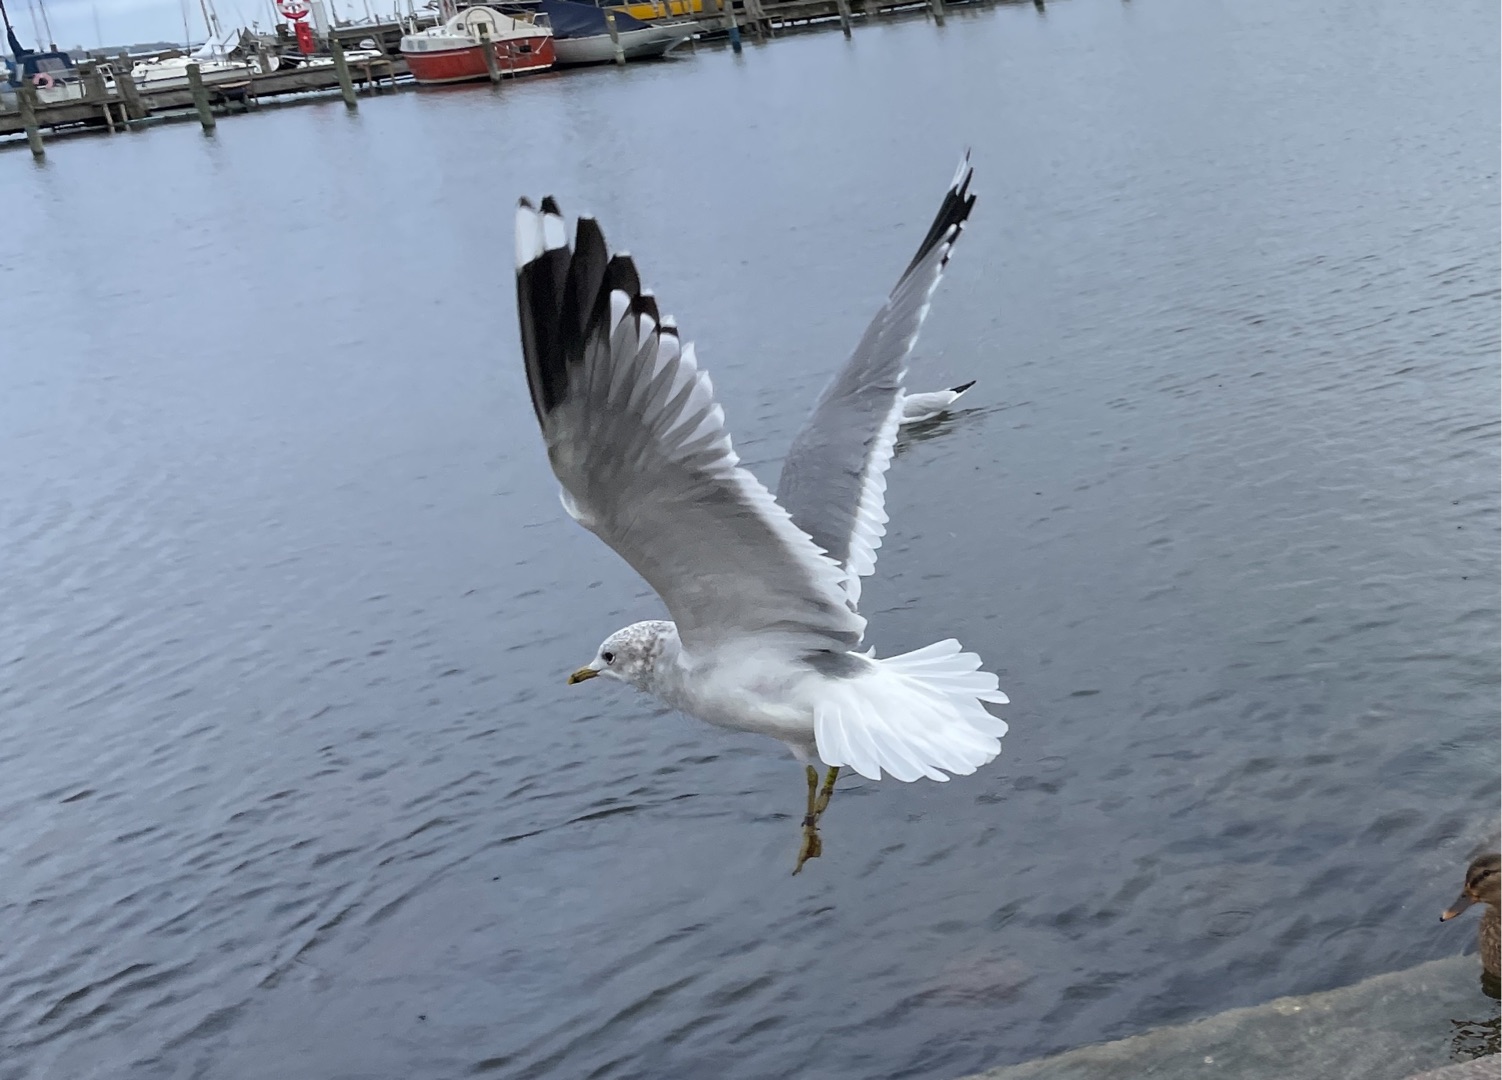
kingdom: Animalia
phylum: Chordata
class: Aves
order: Charadriiformes
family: Laridae
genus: Larus
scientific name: Larus canus
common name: Stormmåge
